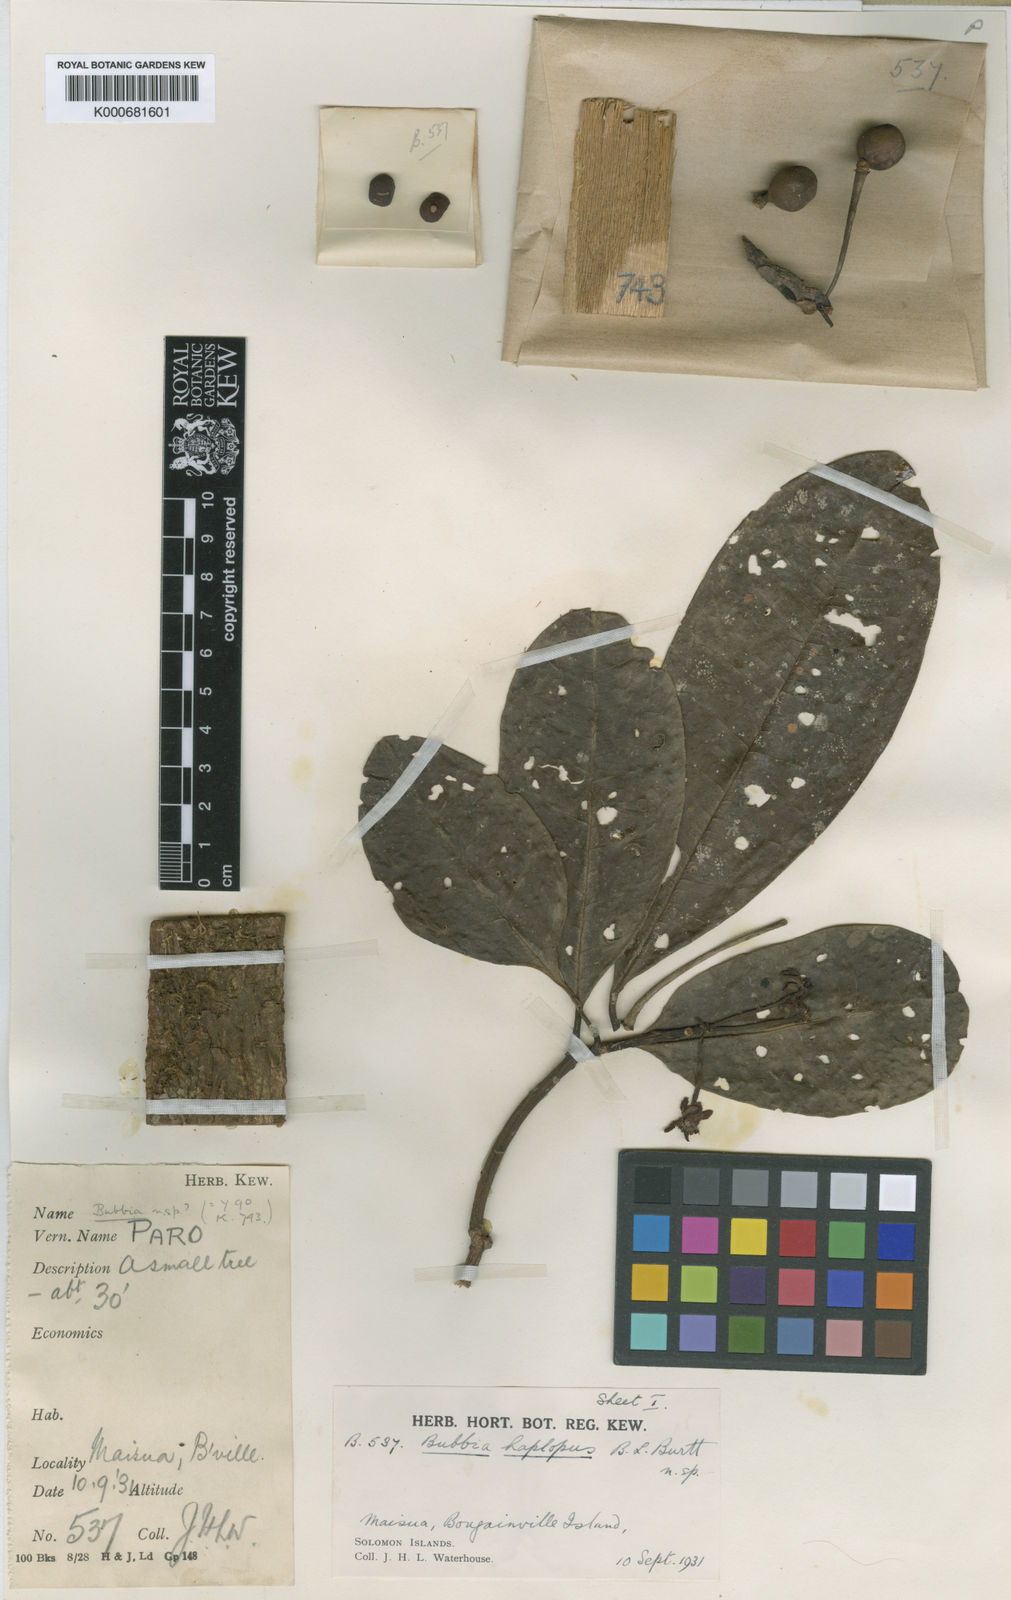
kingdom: Plantae
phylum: Tracheophyta
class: Magnoliopsida
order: Canellales
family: Winteraceae
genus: Zygogynum
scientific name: Zygogynum haplopus
